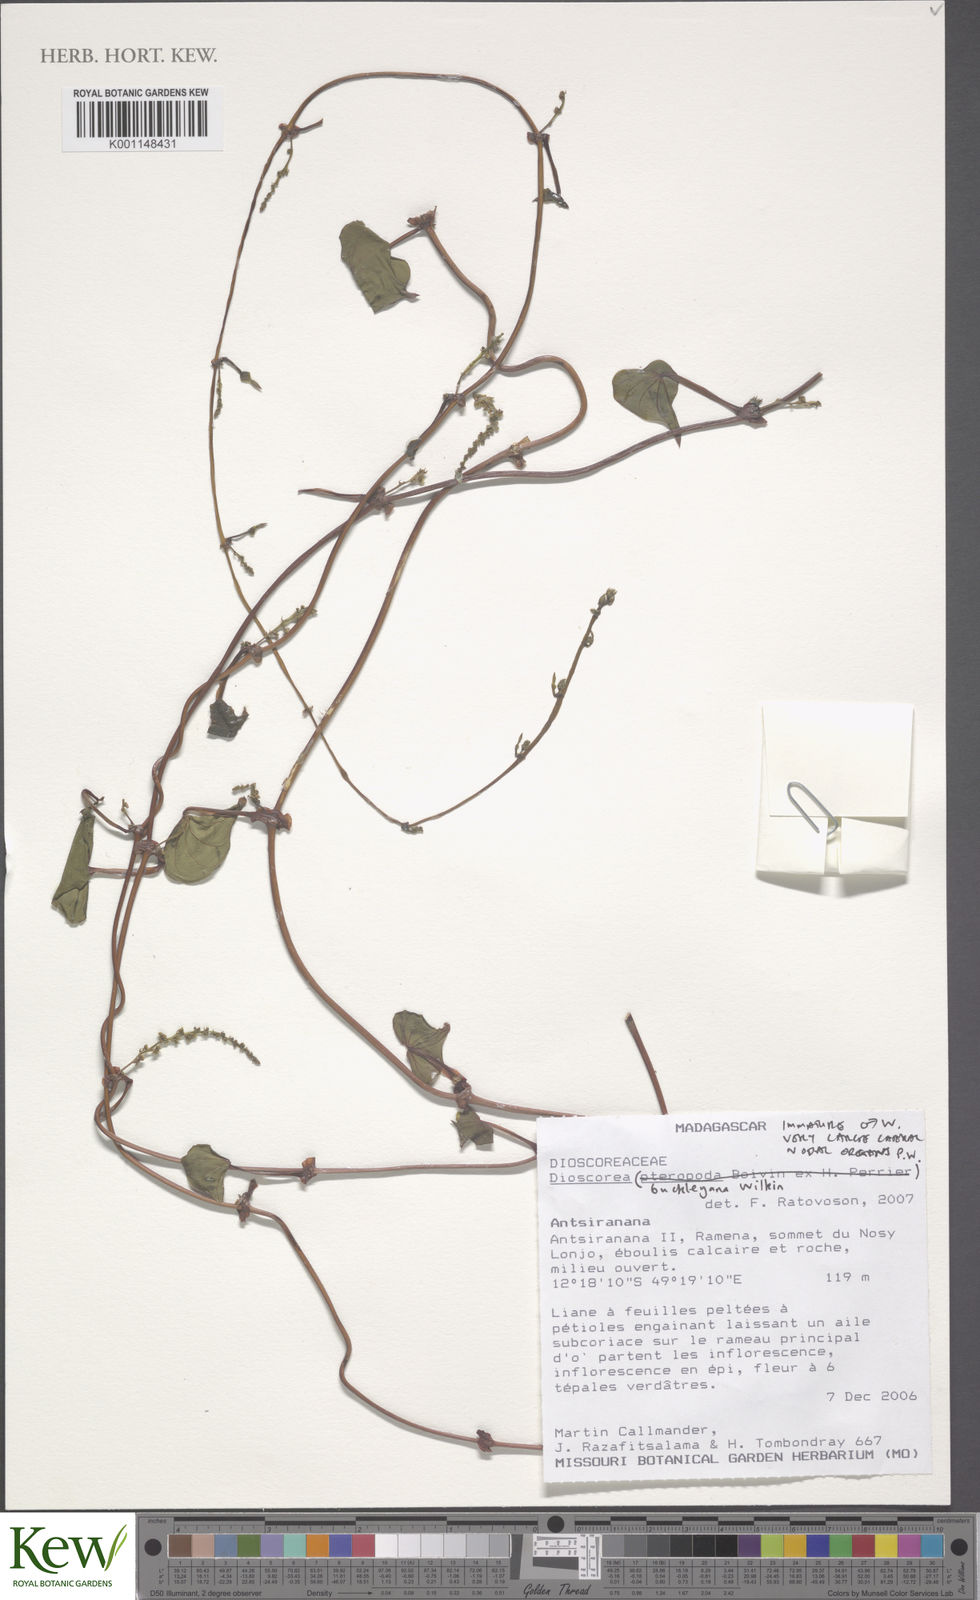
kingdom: Plantae
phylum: Tracheophyta
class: Liliopsida
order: Dioscoreales
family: Dioscoreaceae
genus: Dioscorea
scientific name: Dioscorea buckleyana
